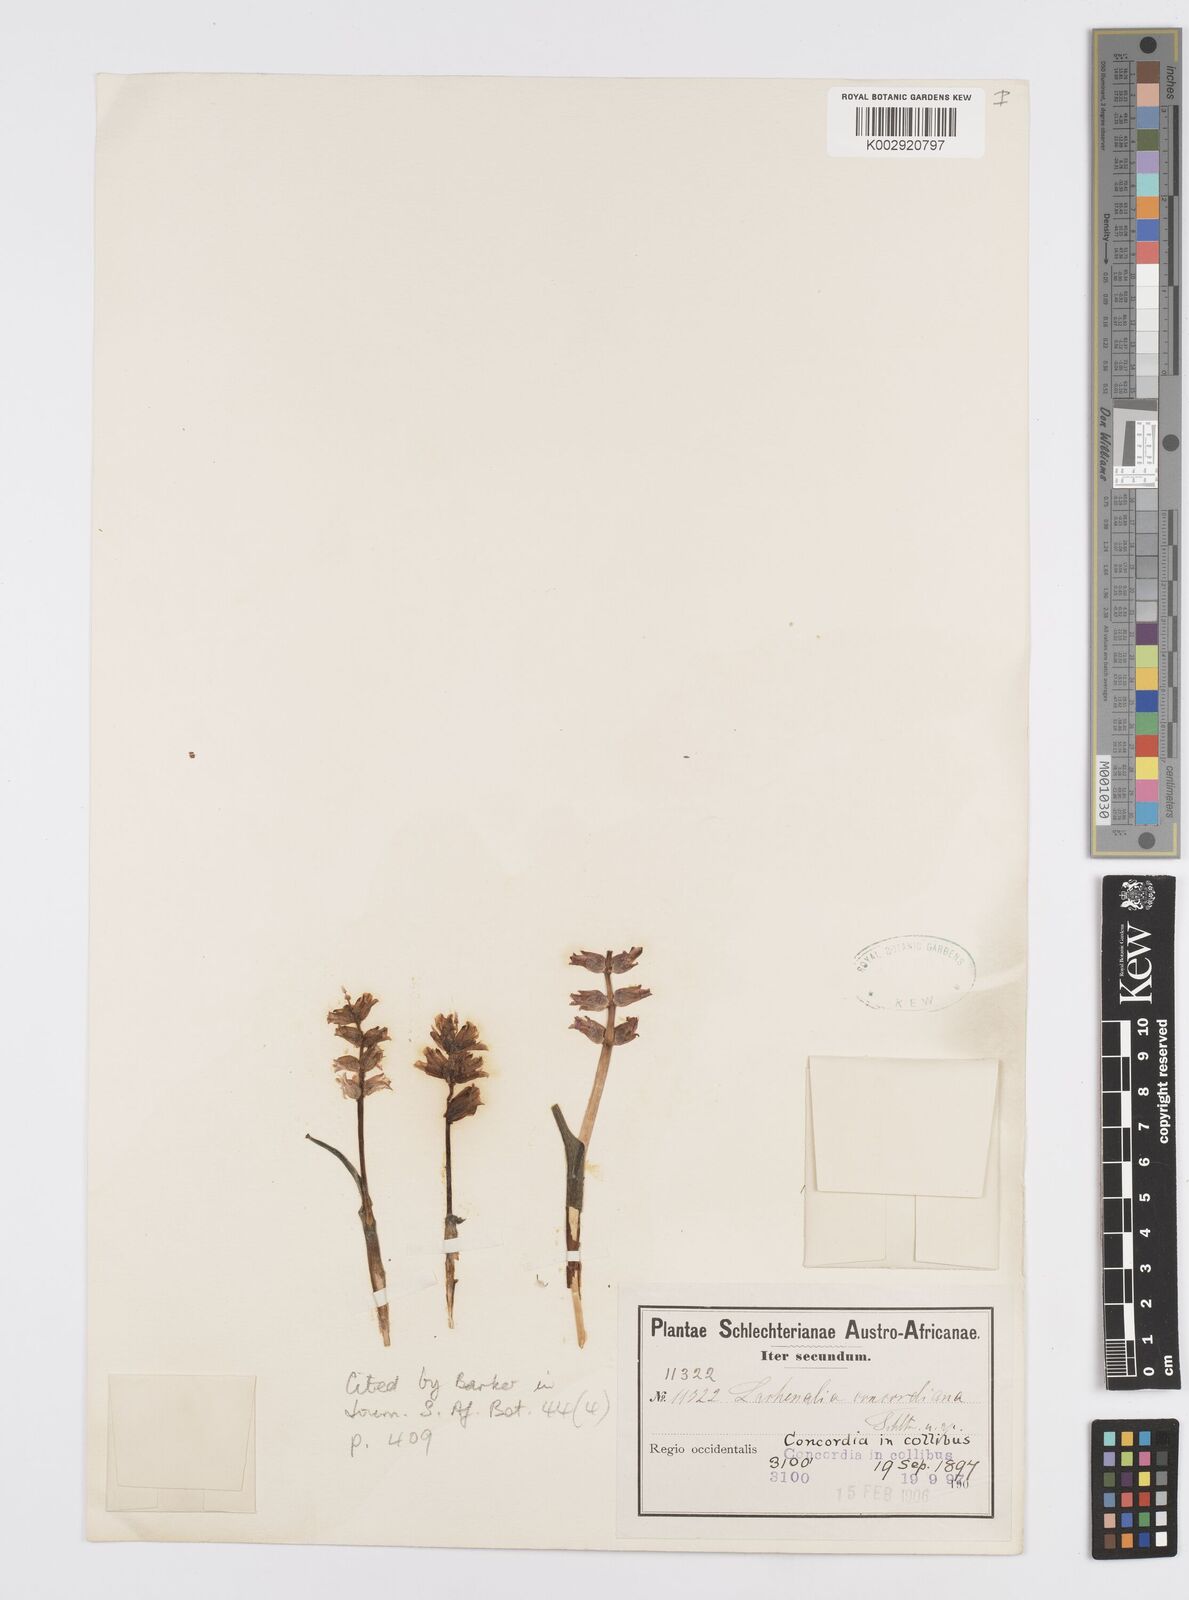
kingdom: Plantae
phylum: Tracheophyta
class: Liliopsida
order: Asparagales
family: Asparagaceae
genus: Lachenalia
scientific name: Lachenalia concordiana
